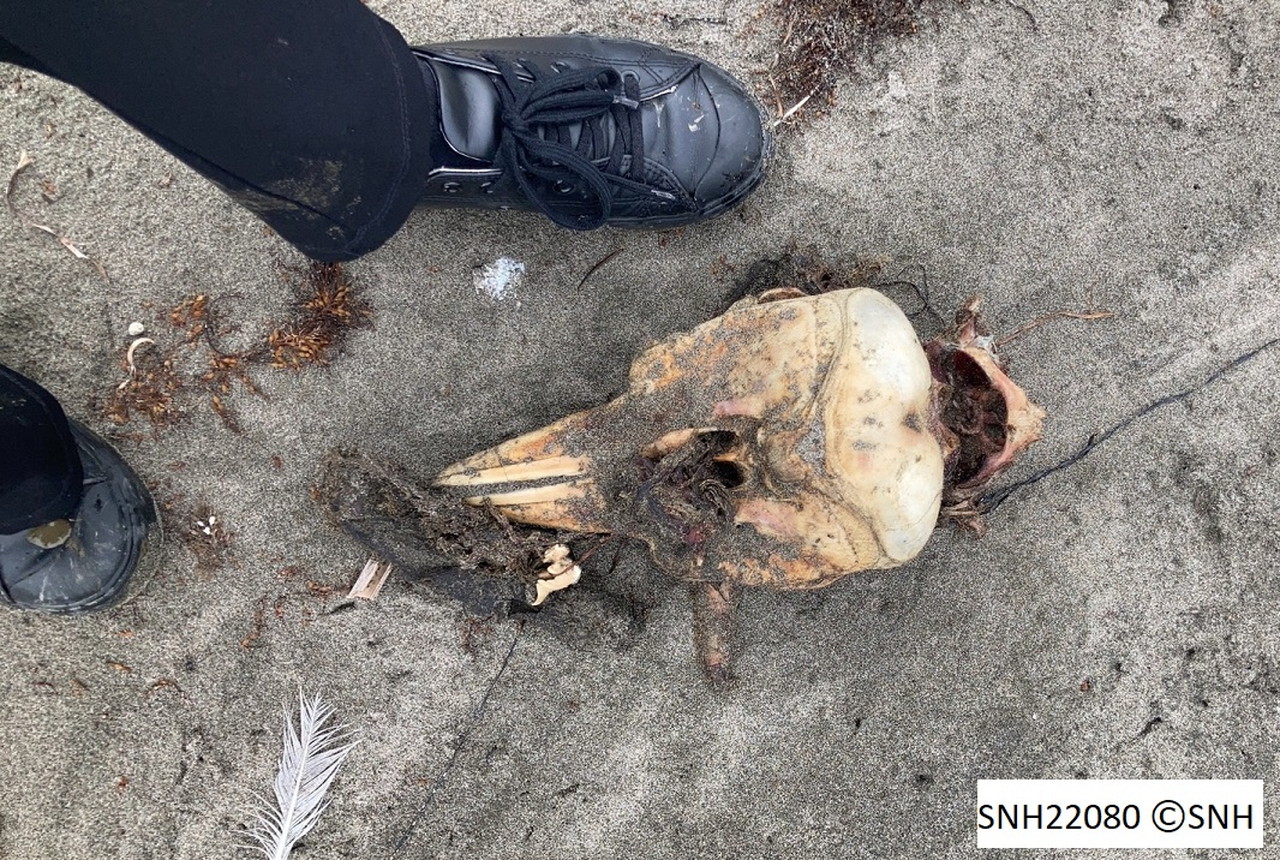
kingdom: Animalia
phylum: Chordata
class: Mammalia
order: Cetacea
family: Phocoenidae
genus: Phocoena
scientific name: Phocoena phocoena
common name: Harbour porpoise
